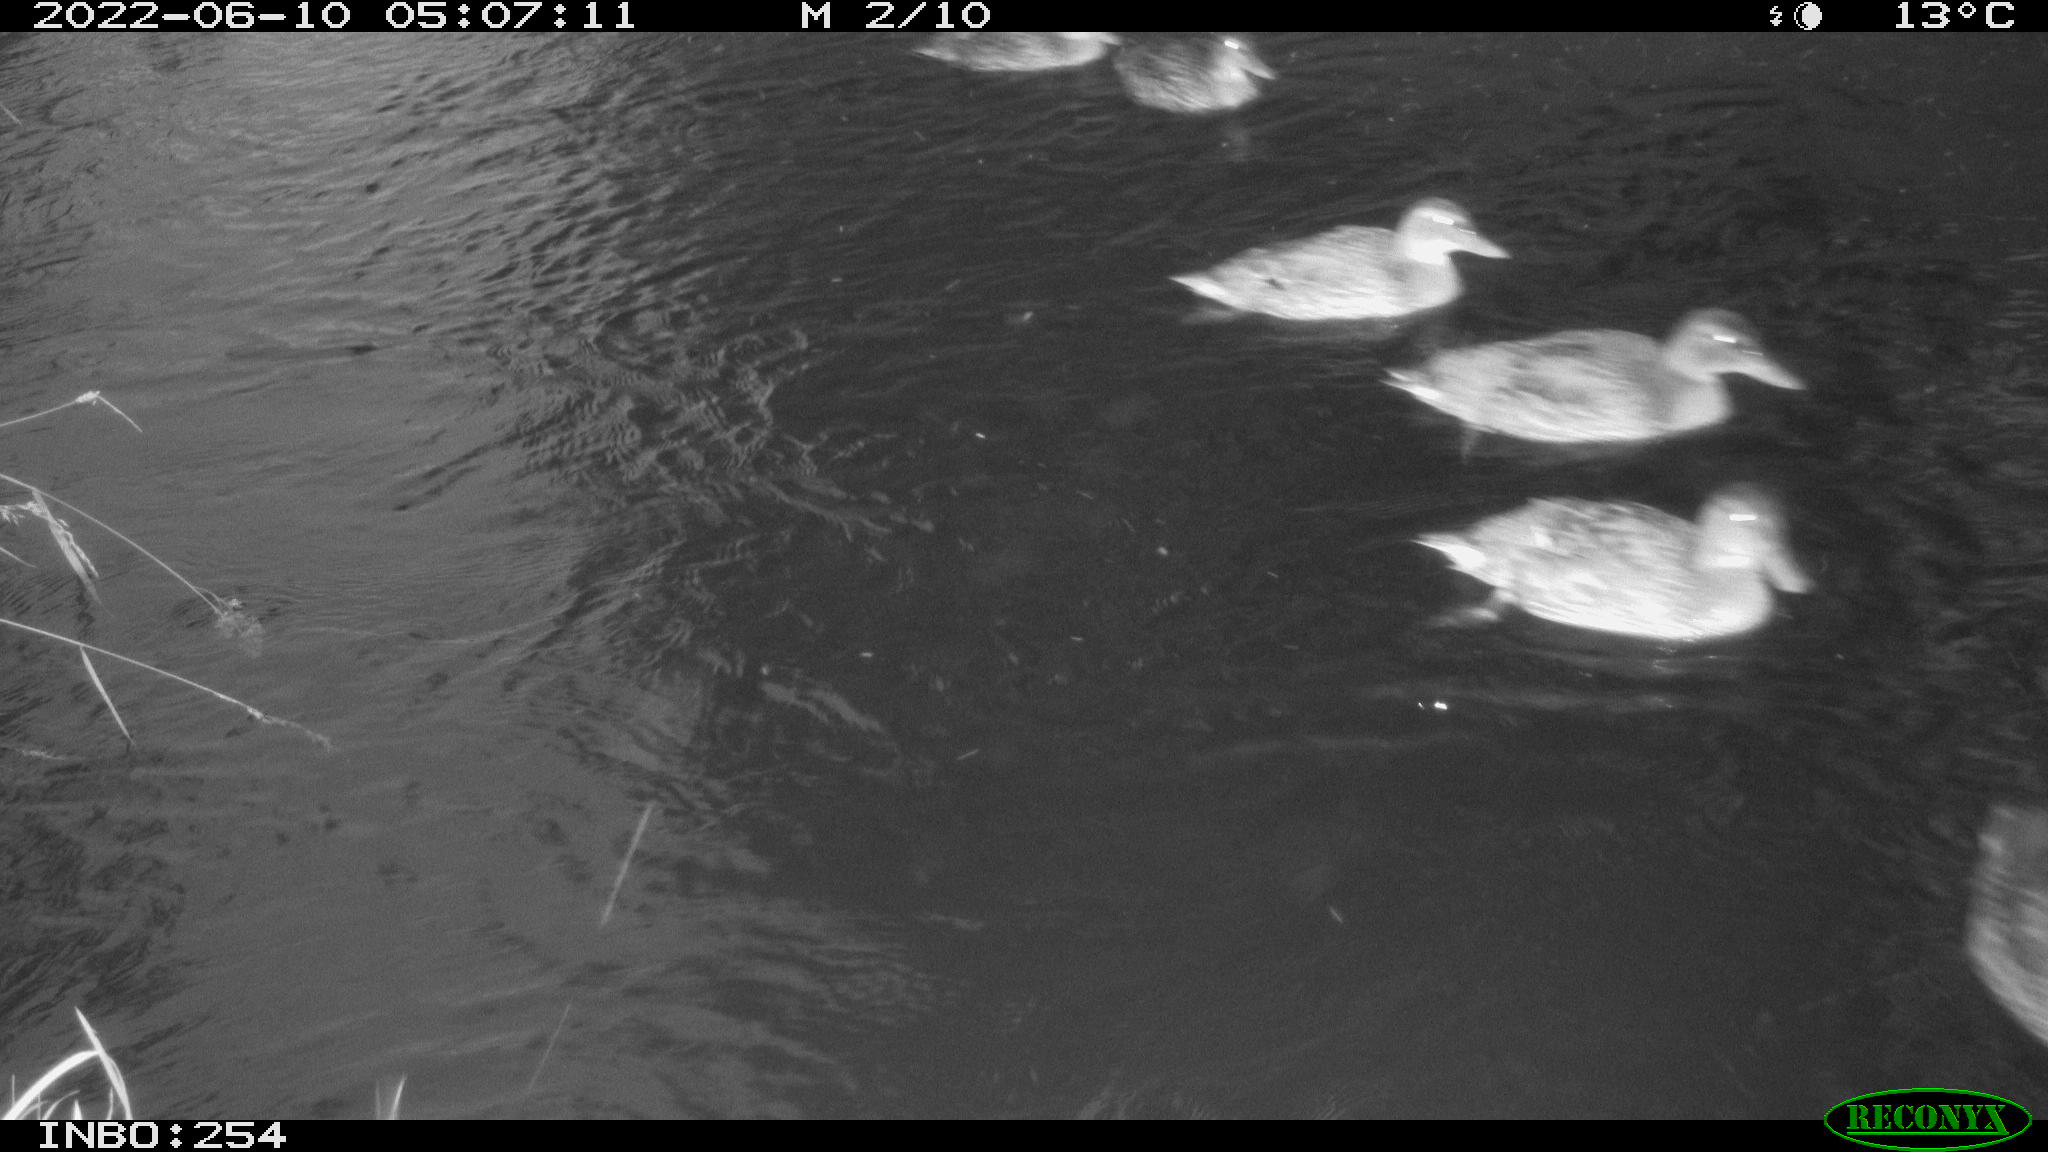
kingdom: Animalia
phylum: Chordata
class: Aves
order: Anseriformes
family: Anatidae
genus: Anas
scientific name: Anas platyrhynchos
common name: Mallard
